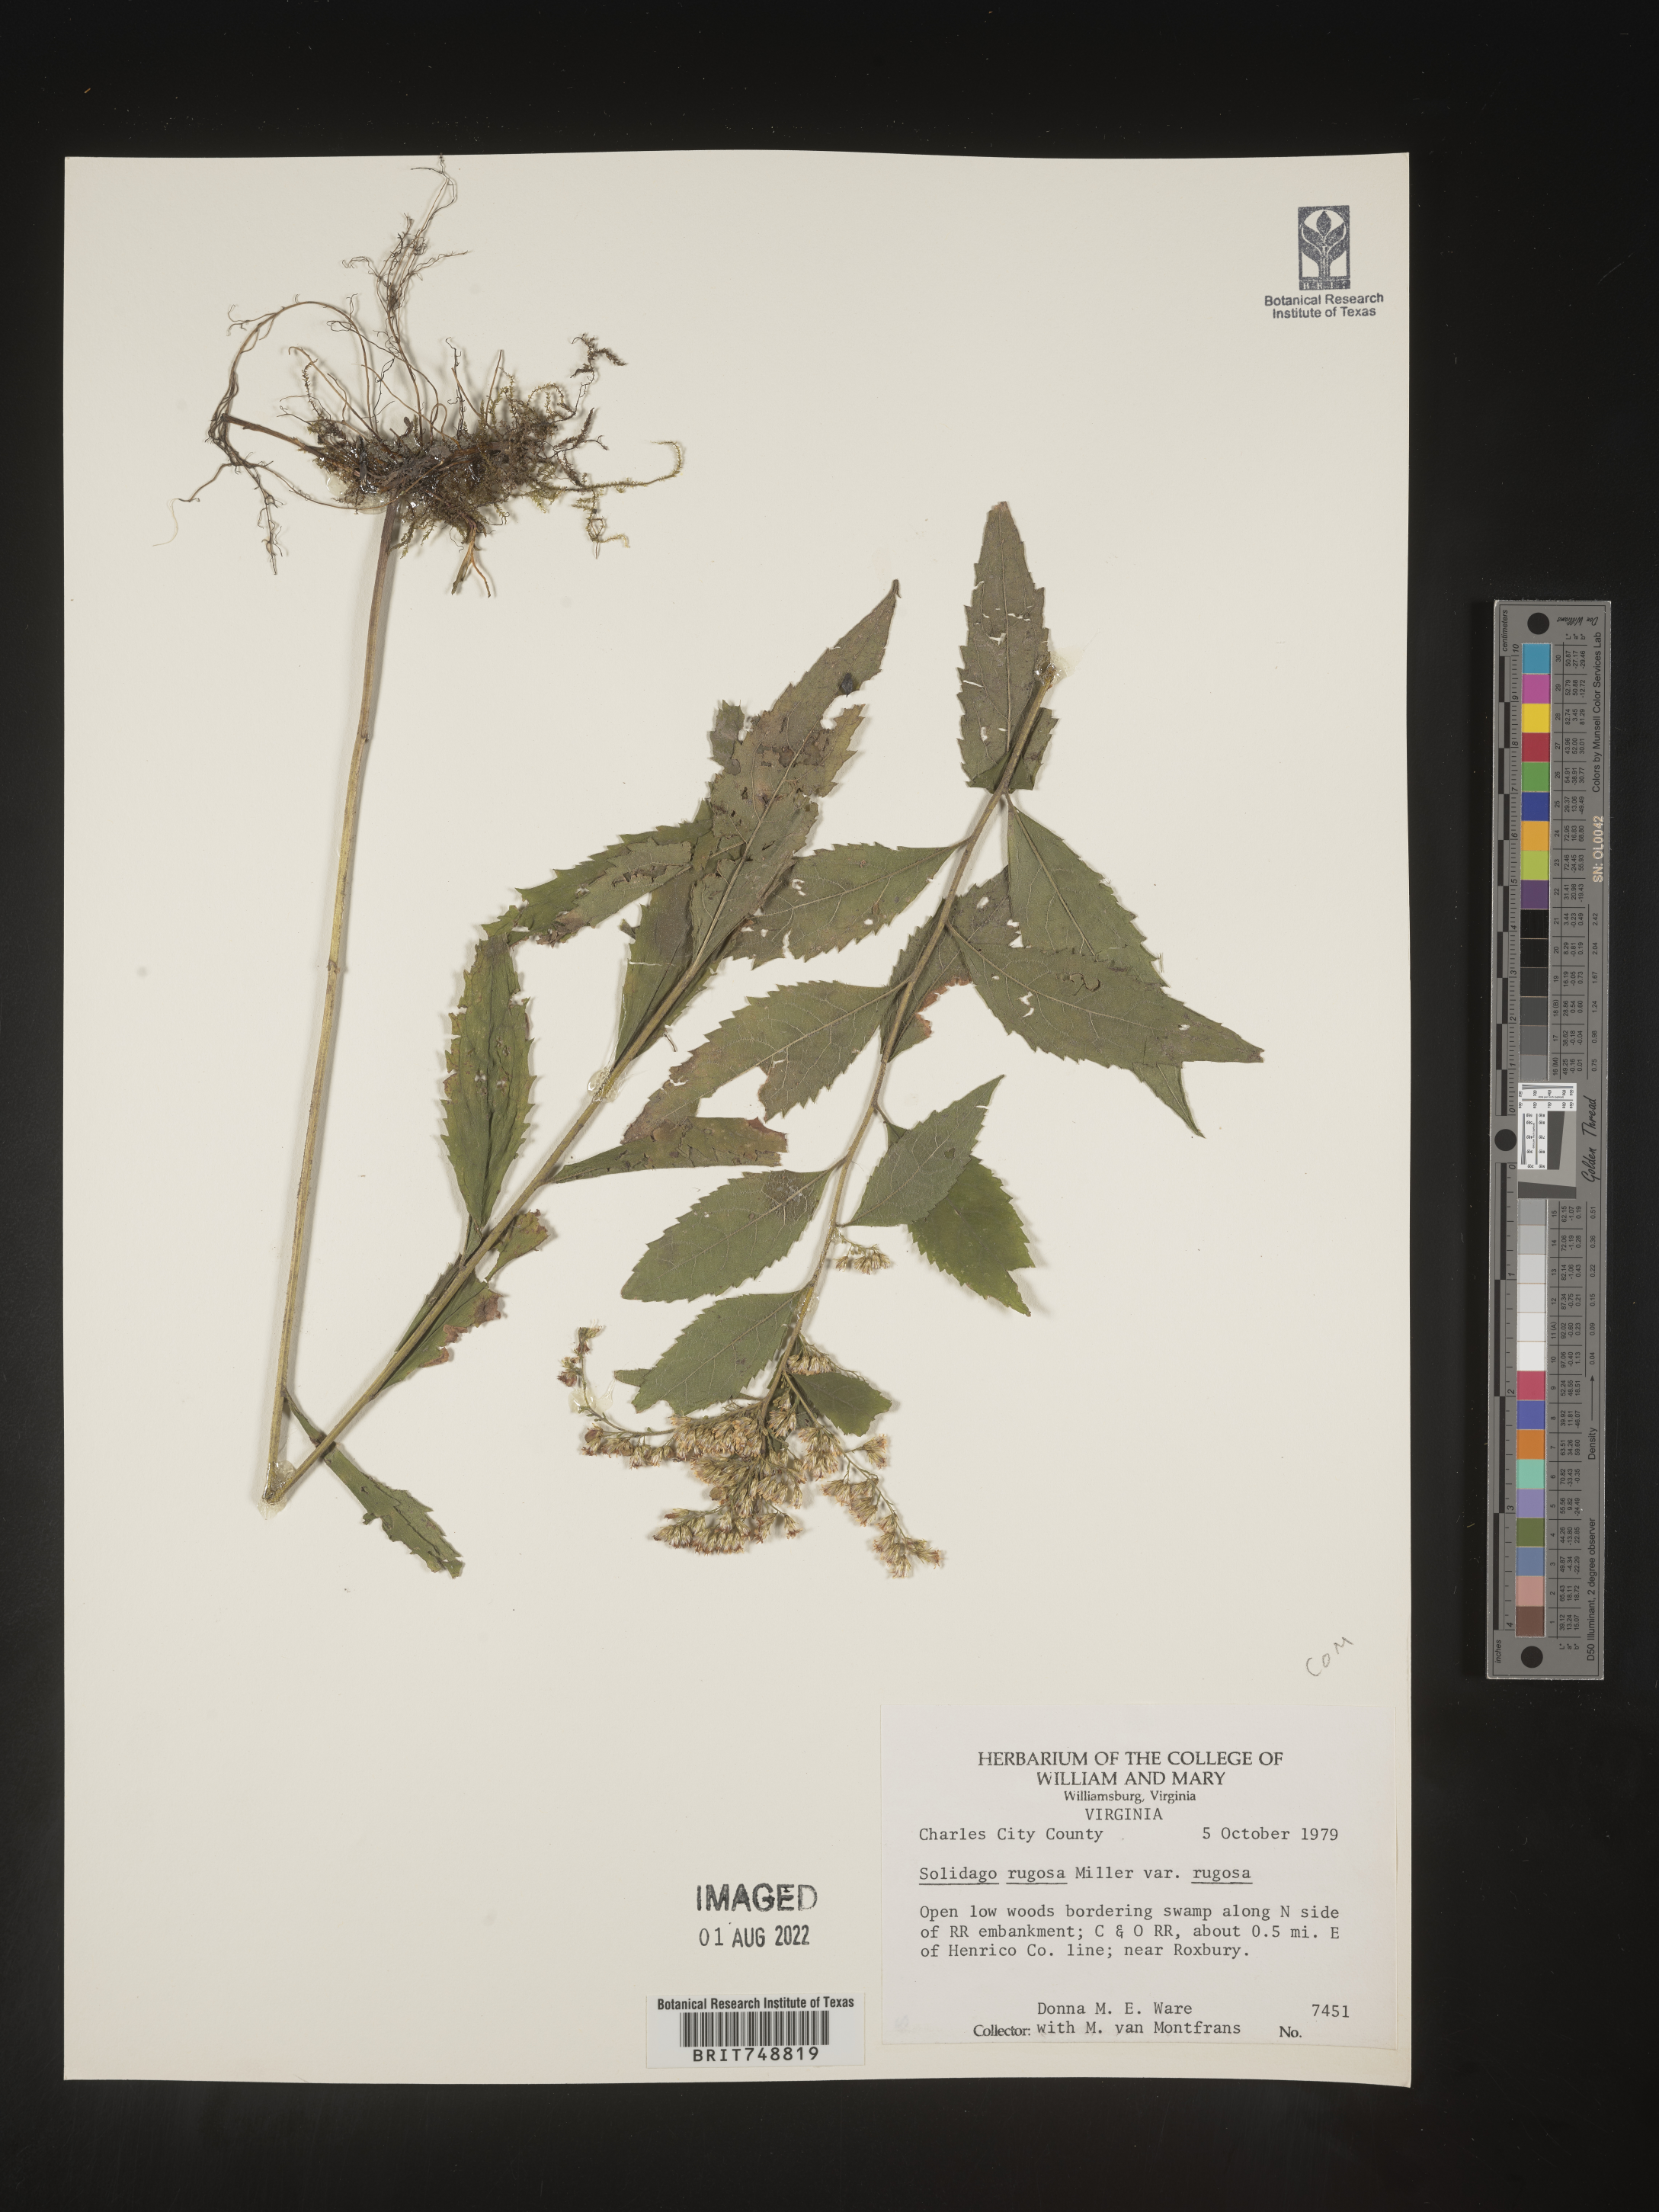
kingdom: Plantae
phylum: Tracheophyta
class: Magnoliopsida
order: Asterales
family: Asteraceae
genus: Solidago
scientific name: Solidago rugosa
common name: Rough-stemmed goldenrod
